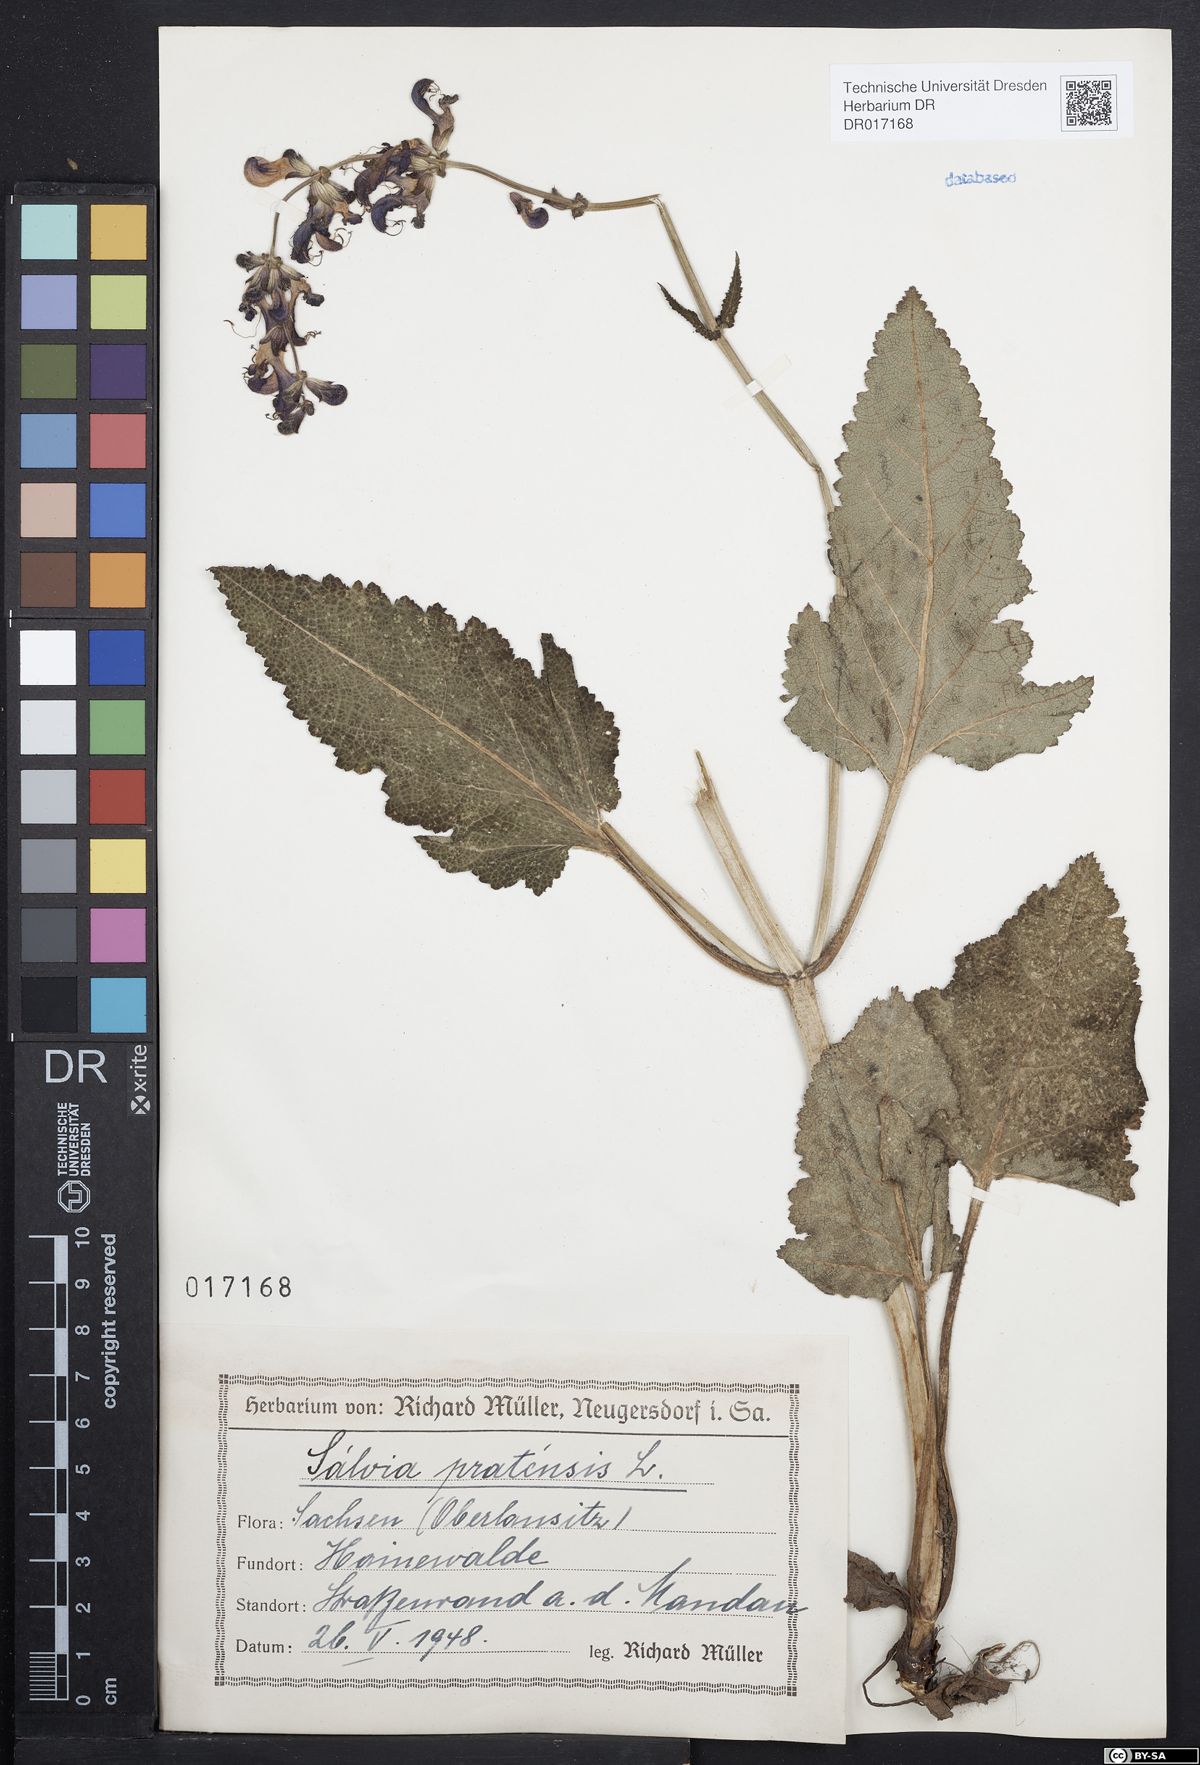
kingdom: Plantae
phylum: Tracheophyta
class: Magnoliopsida
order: Lamiales
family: Lamiaceae
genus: Salvia
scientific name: Salvia pratensis
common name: Meadow sage
